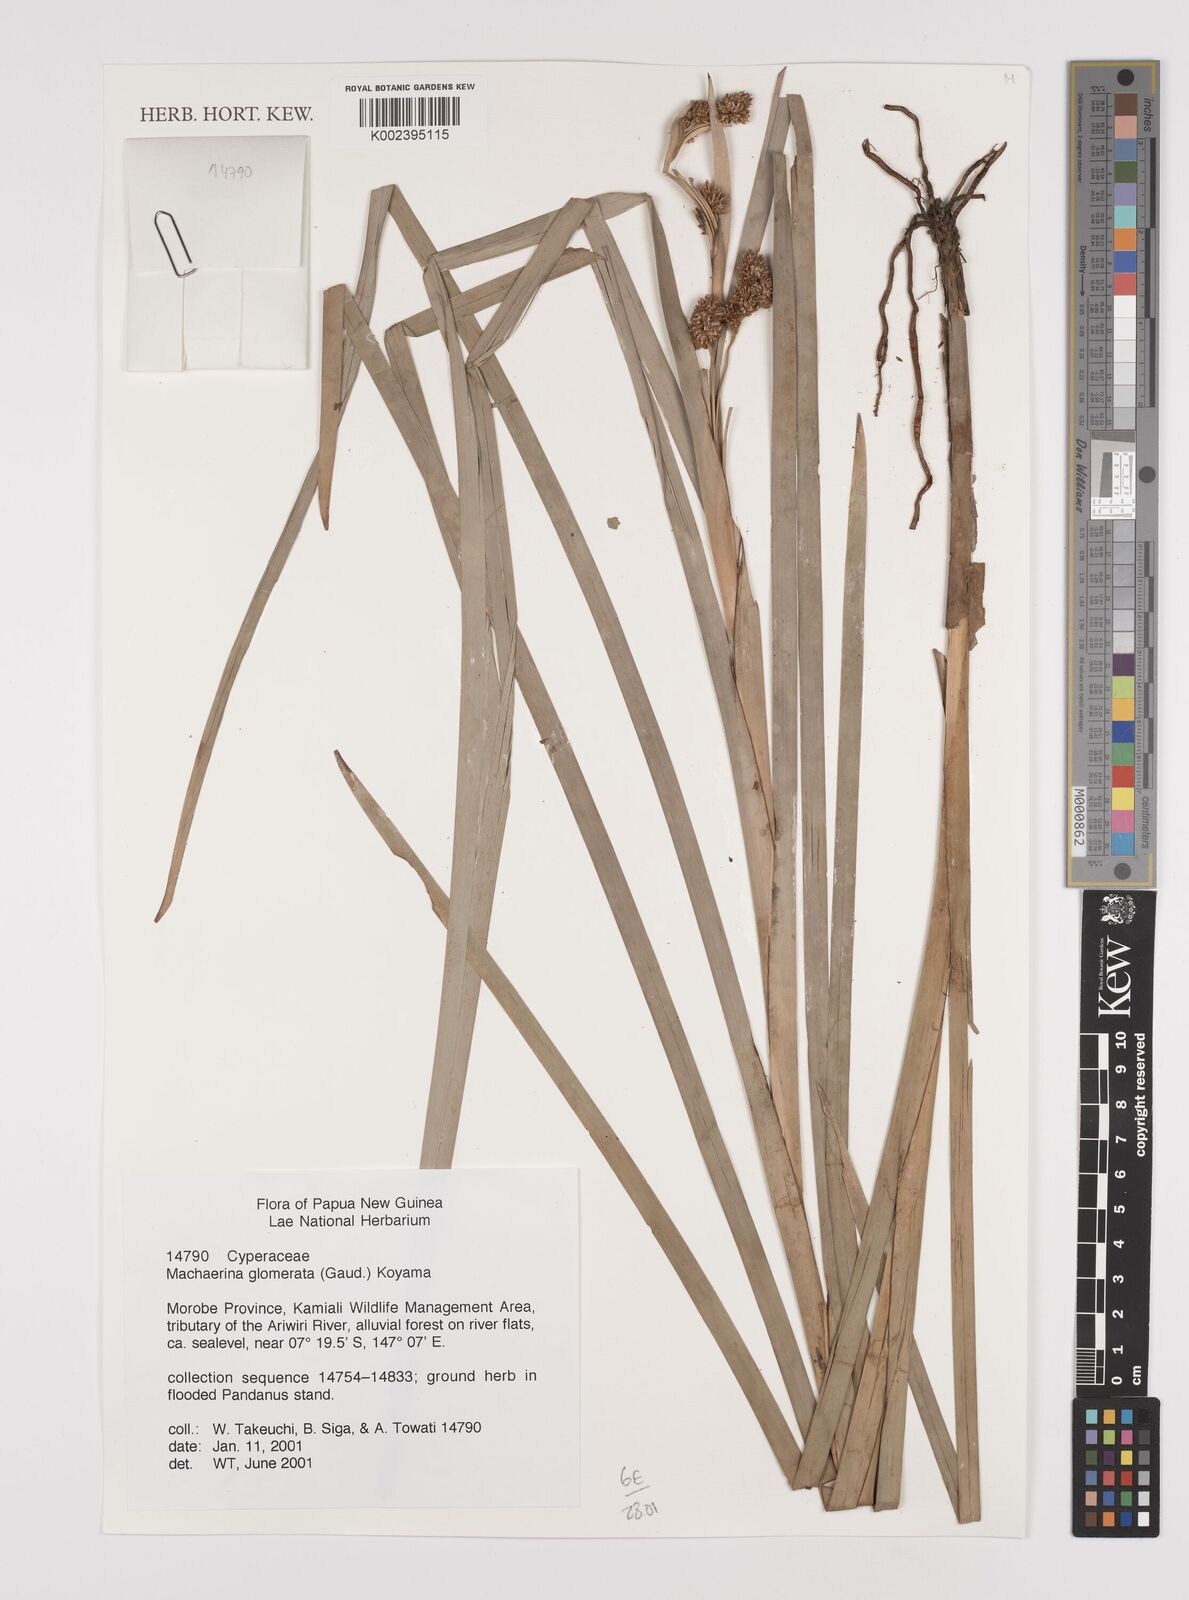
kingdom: Plantae
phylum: Tracheophyta
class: Liliopsida
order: Poales
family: Cyperaceae
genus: Machaerina
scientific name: Machaerina glomerata
